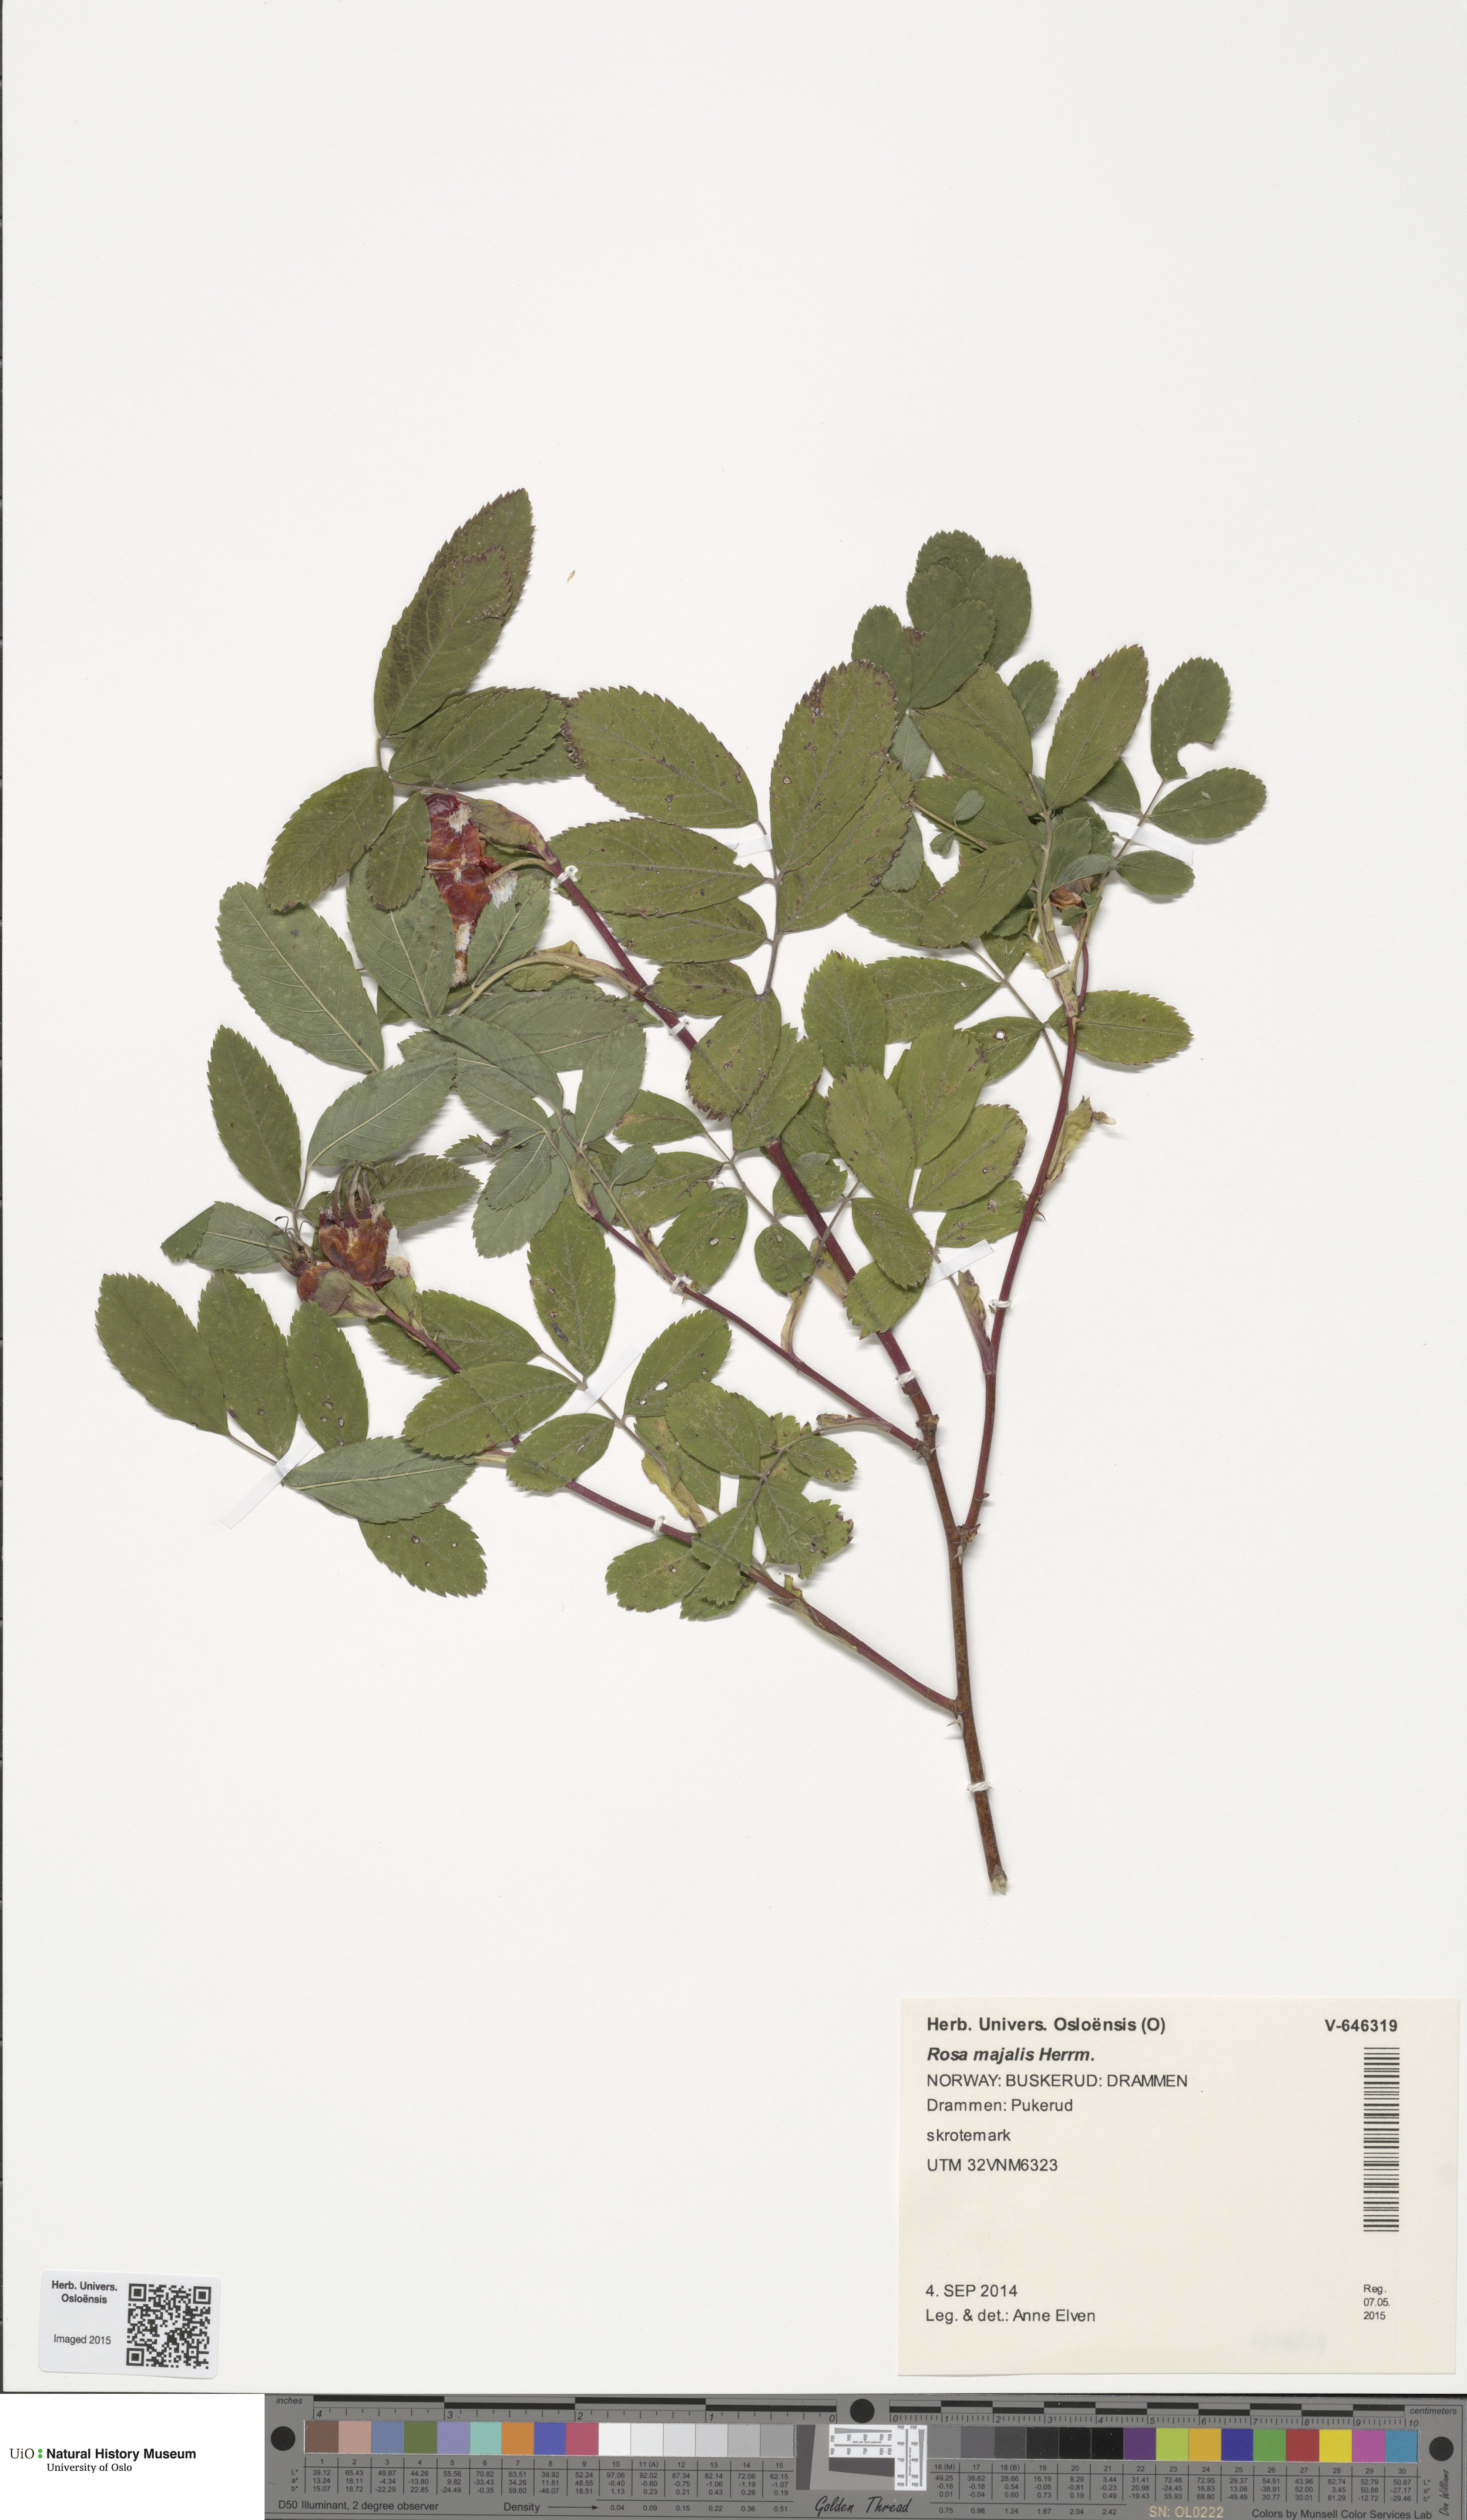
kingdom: Plantae
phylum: Tracheophyta
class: Magnoliopsida
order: Rosales
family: Rosaceae
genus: Rosa
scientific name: Rosa majalis
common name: Cinnamon rose
